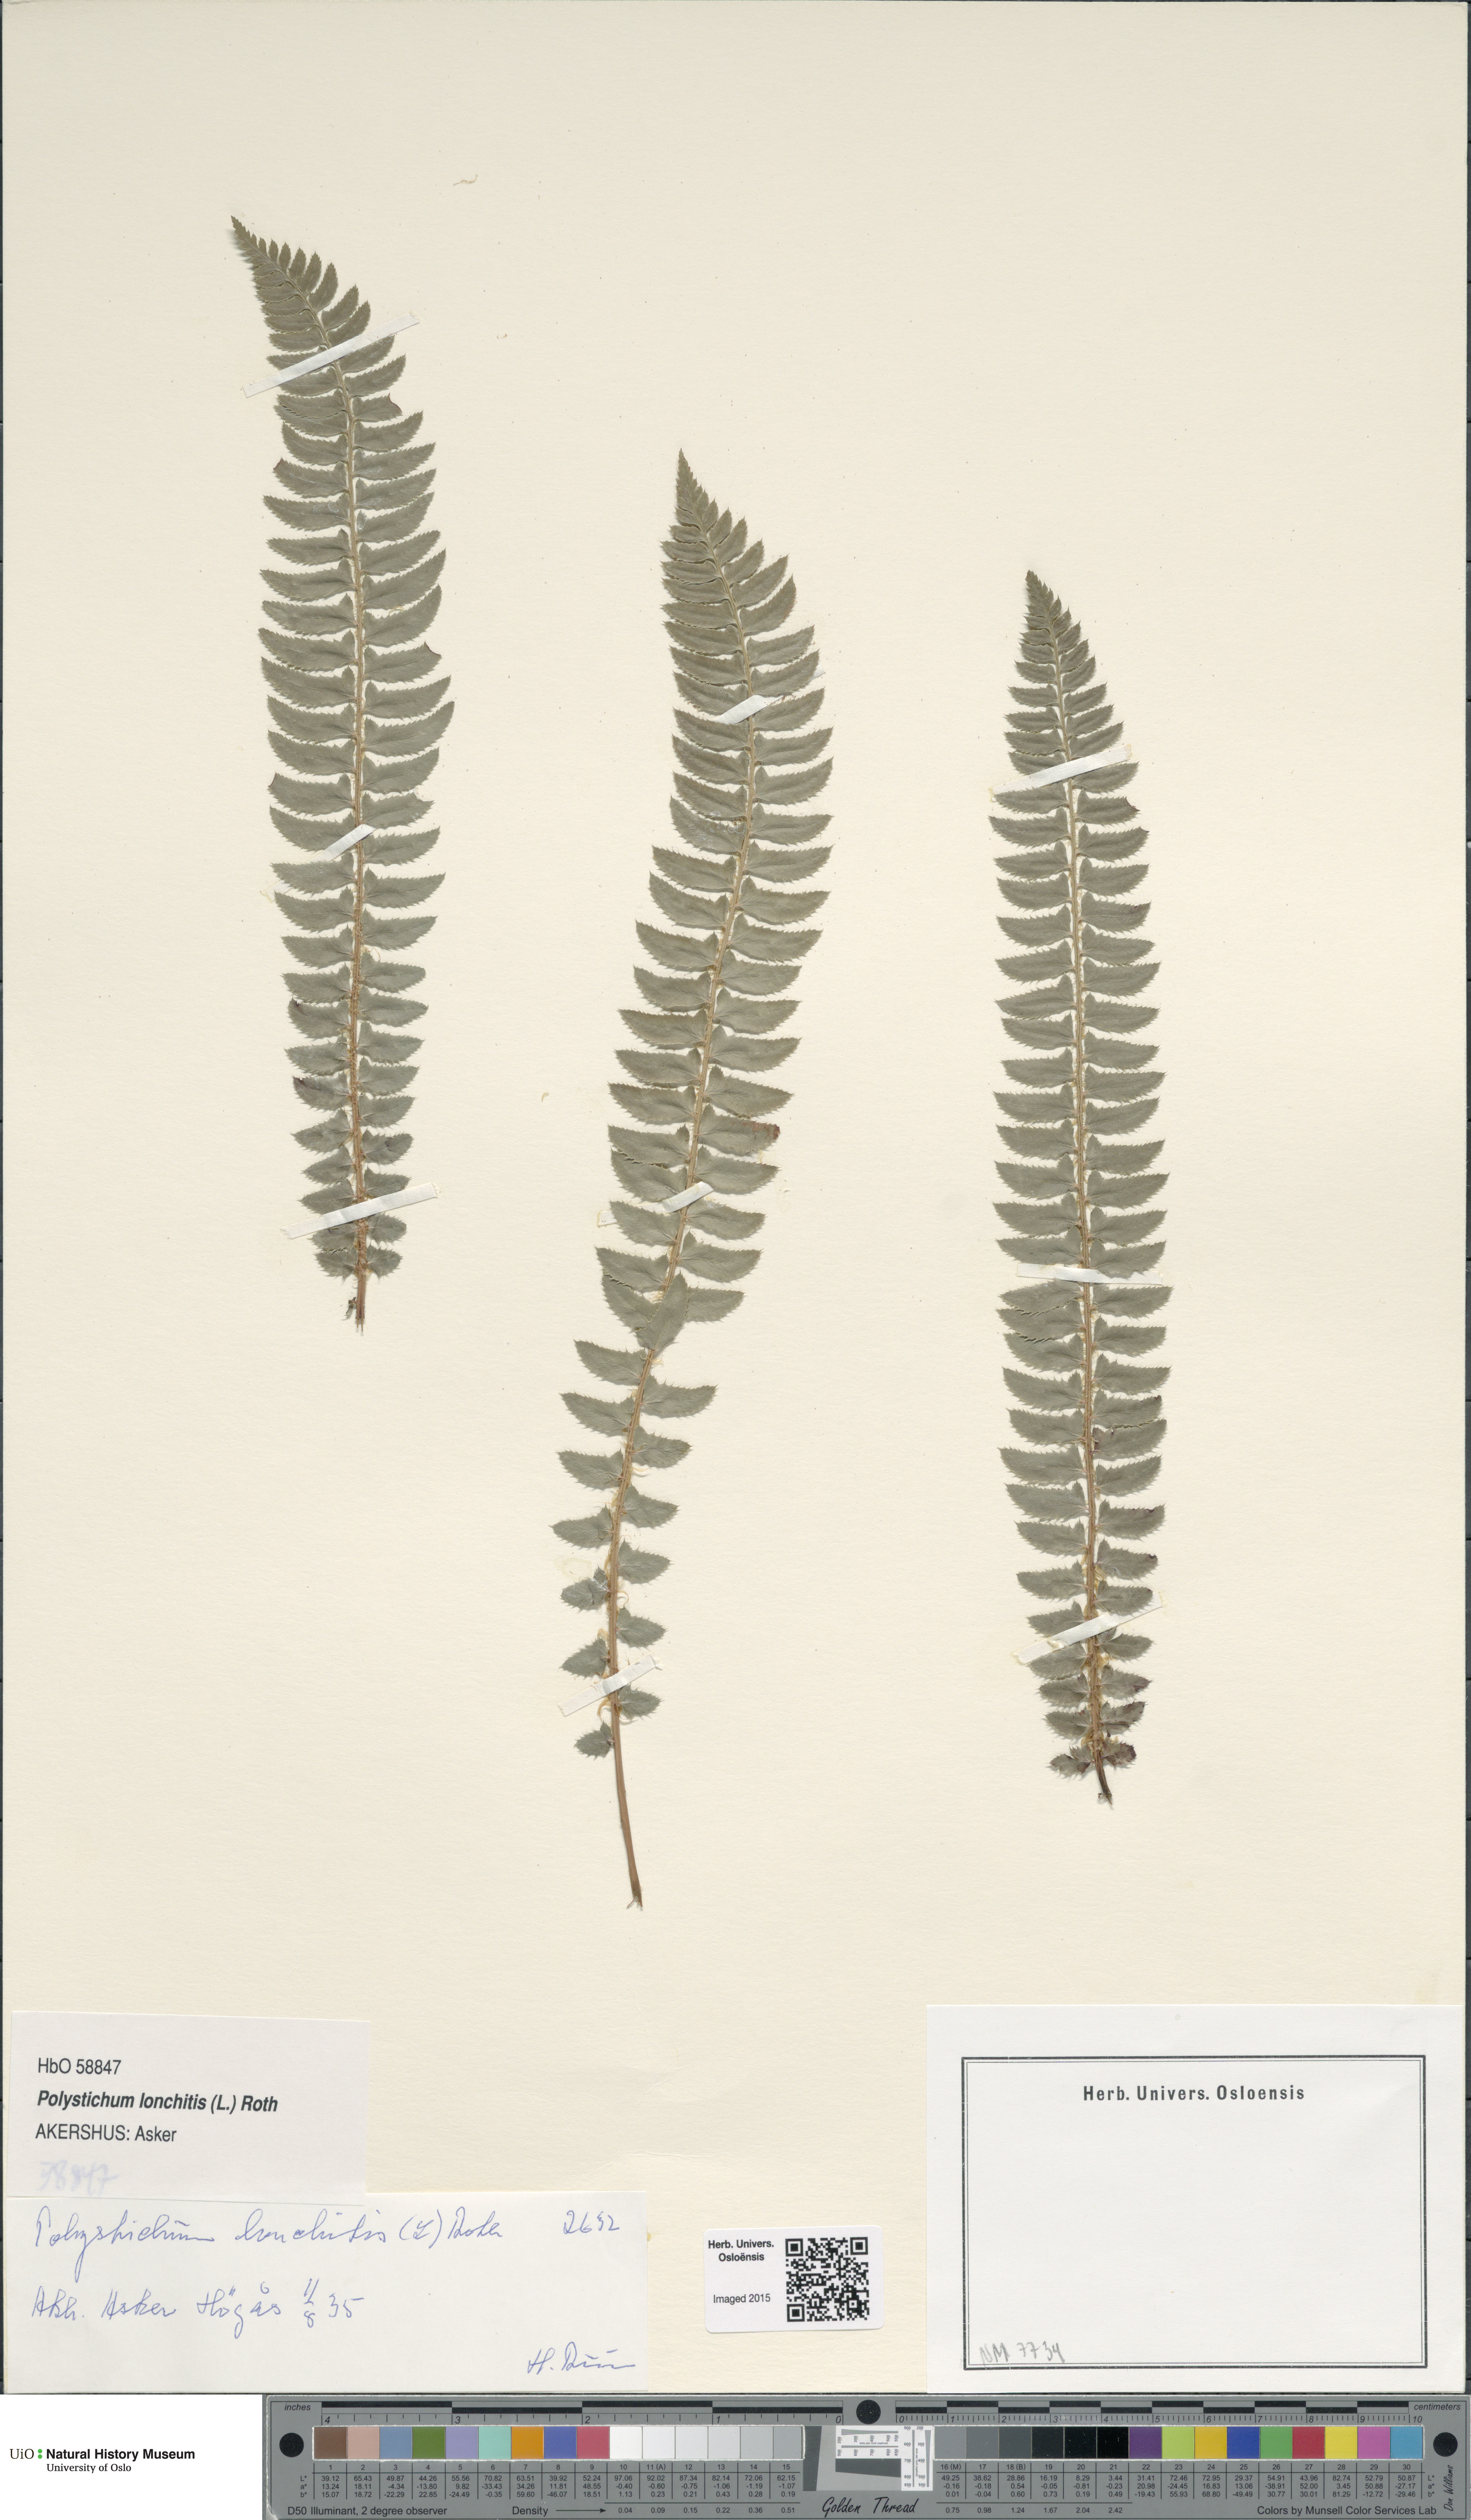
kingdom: Plantae
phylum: Tracheophyta
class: Polypodiopsida
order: Polypodiales
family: Dryopteridaceae
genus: Polystichum
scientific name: Polystichum lonchitis
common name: Holly fern
